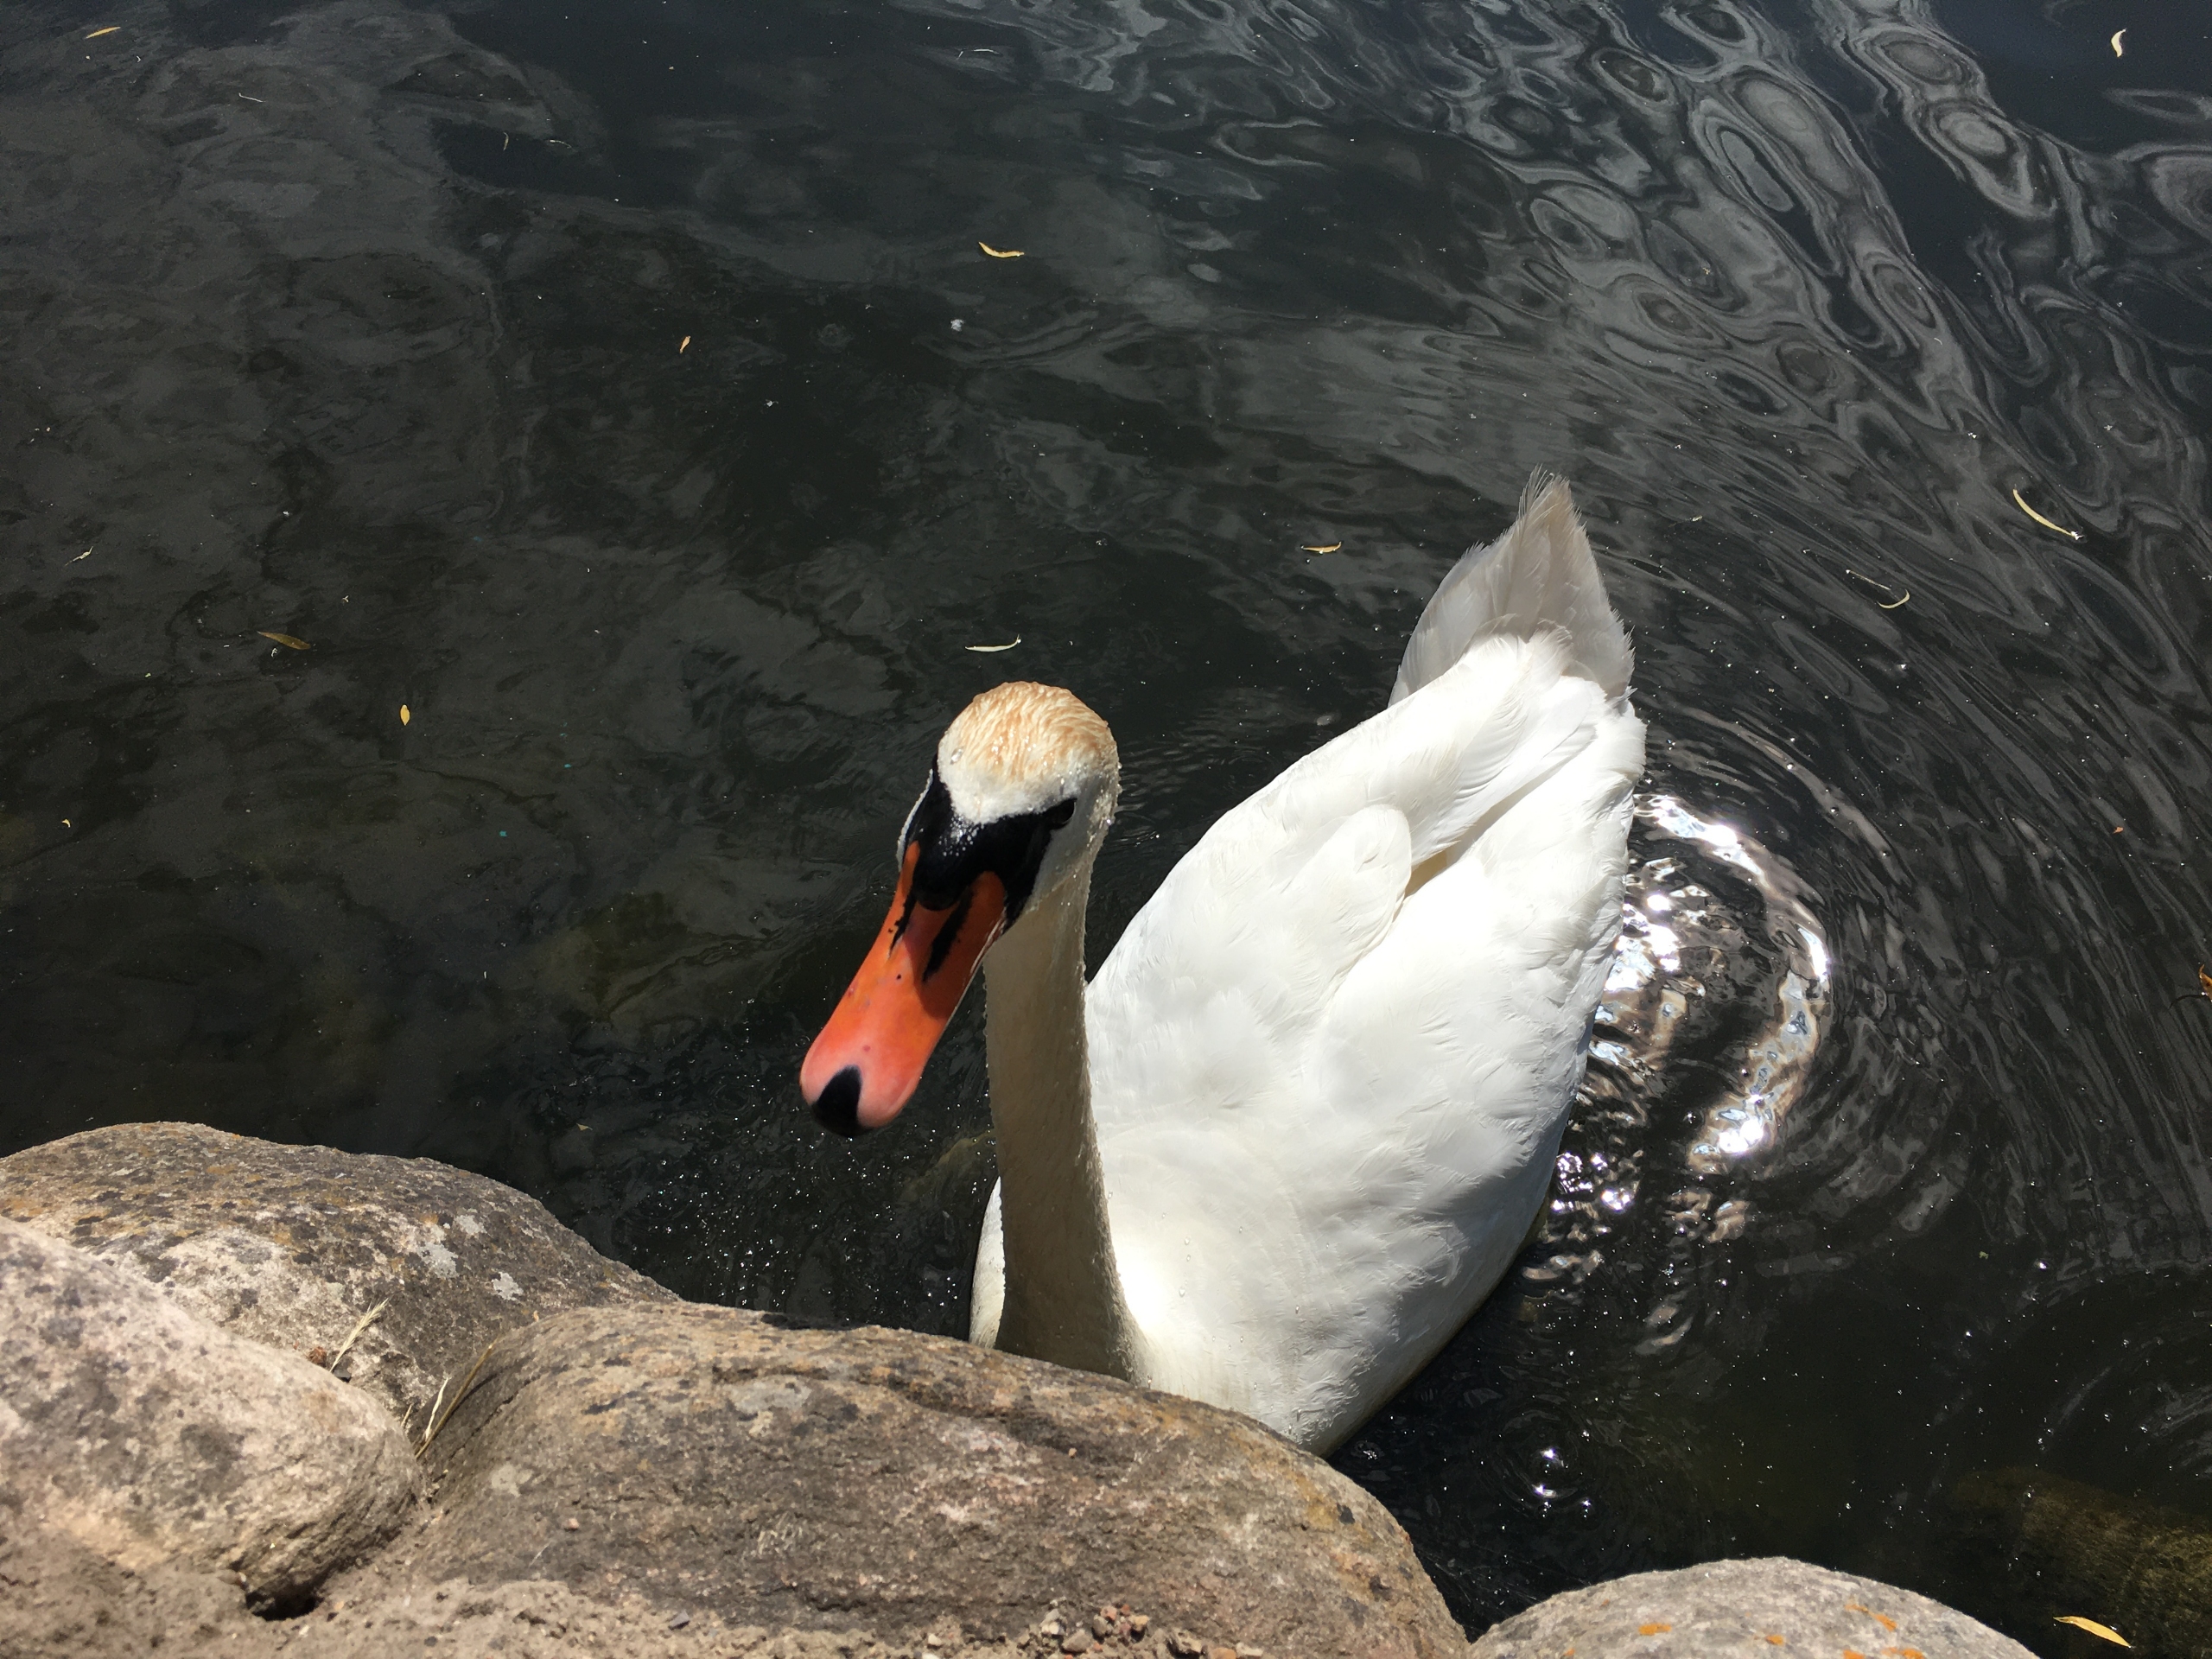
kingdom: Animalia
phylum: Chordata
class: Aves
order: Anseriformes
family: Anatidae
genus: Cygnus
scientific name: Cygnus olor
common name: Knopsvane
